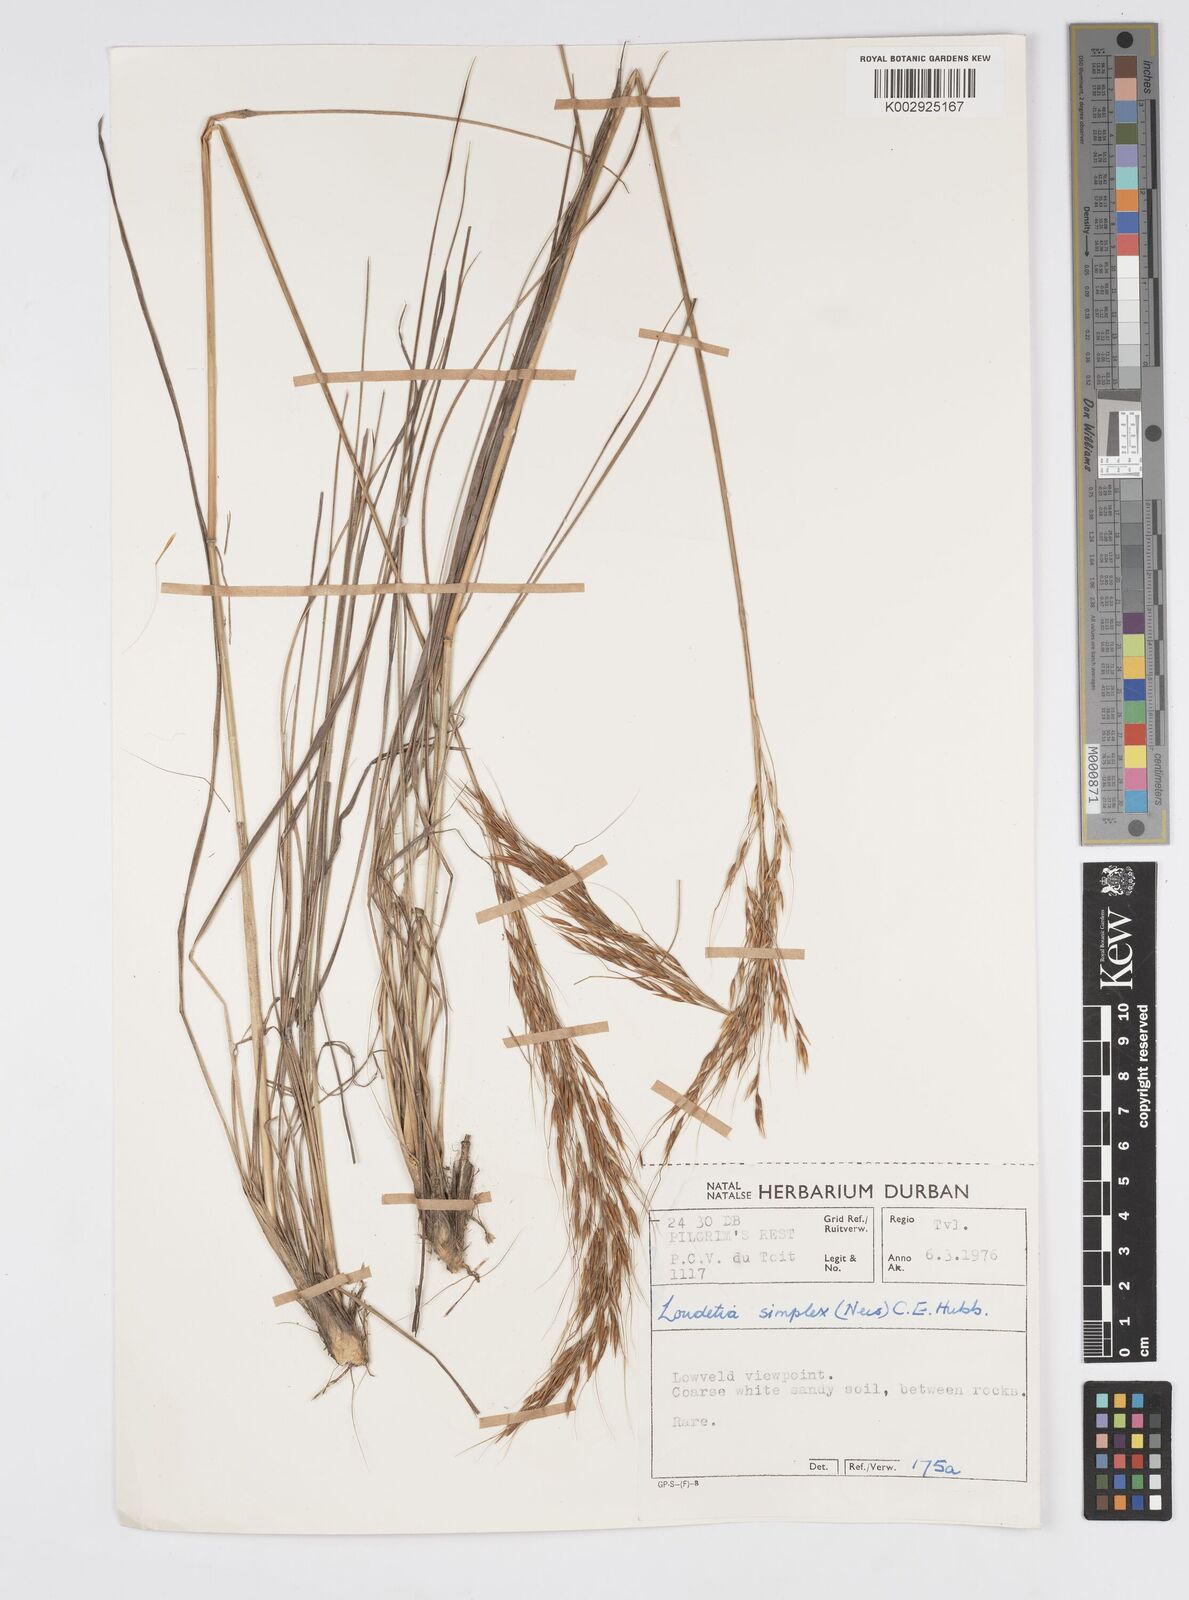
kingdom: Plantae
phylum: Tracheophyta
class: Liliopsida
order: Poales
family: Poaceae
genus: Loudetia
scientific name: Loudetia simplex
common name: Common russet grass
